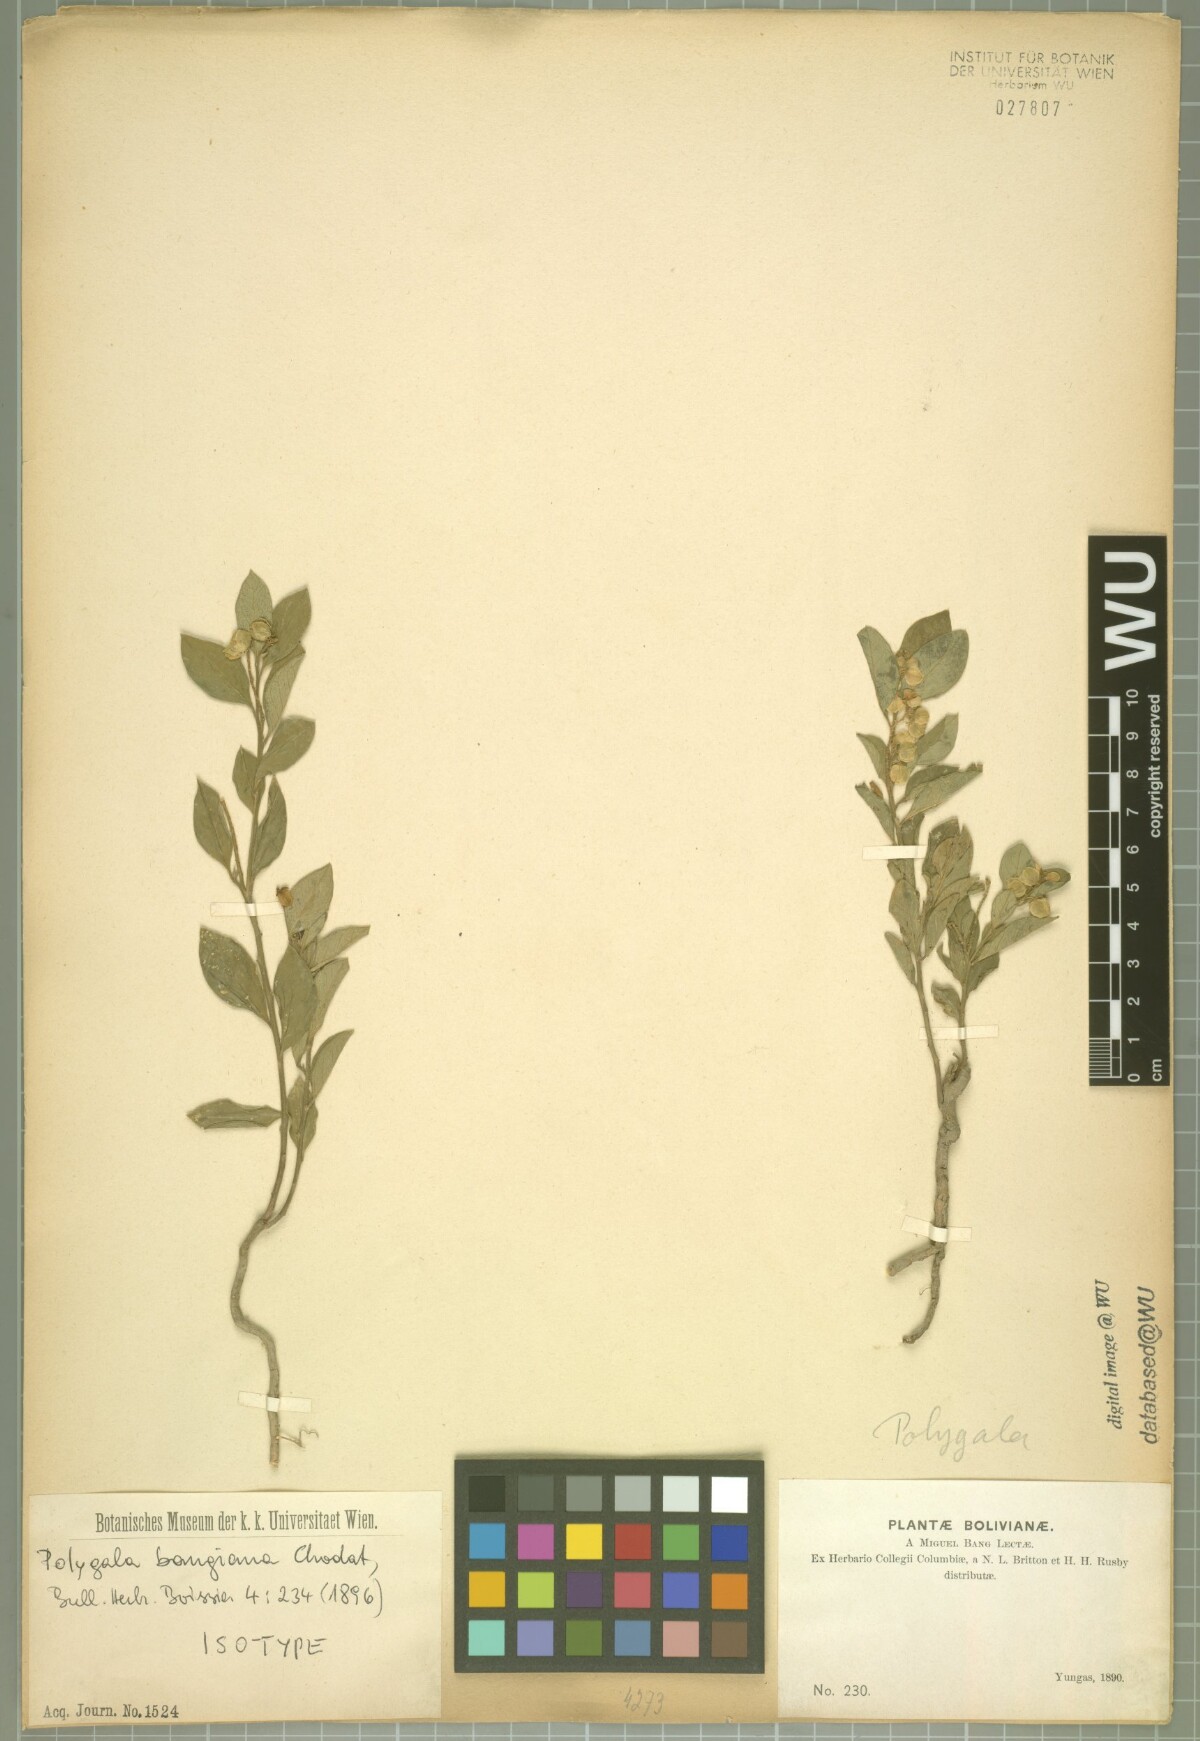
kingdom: Plantae
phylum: Tracheophyta
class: Magnoliopsida
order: Fabales
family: Polygalaceae
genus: Caamembeca
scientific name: Caamembeca andina
